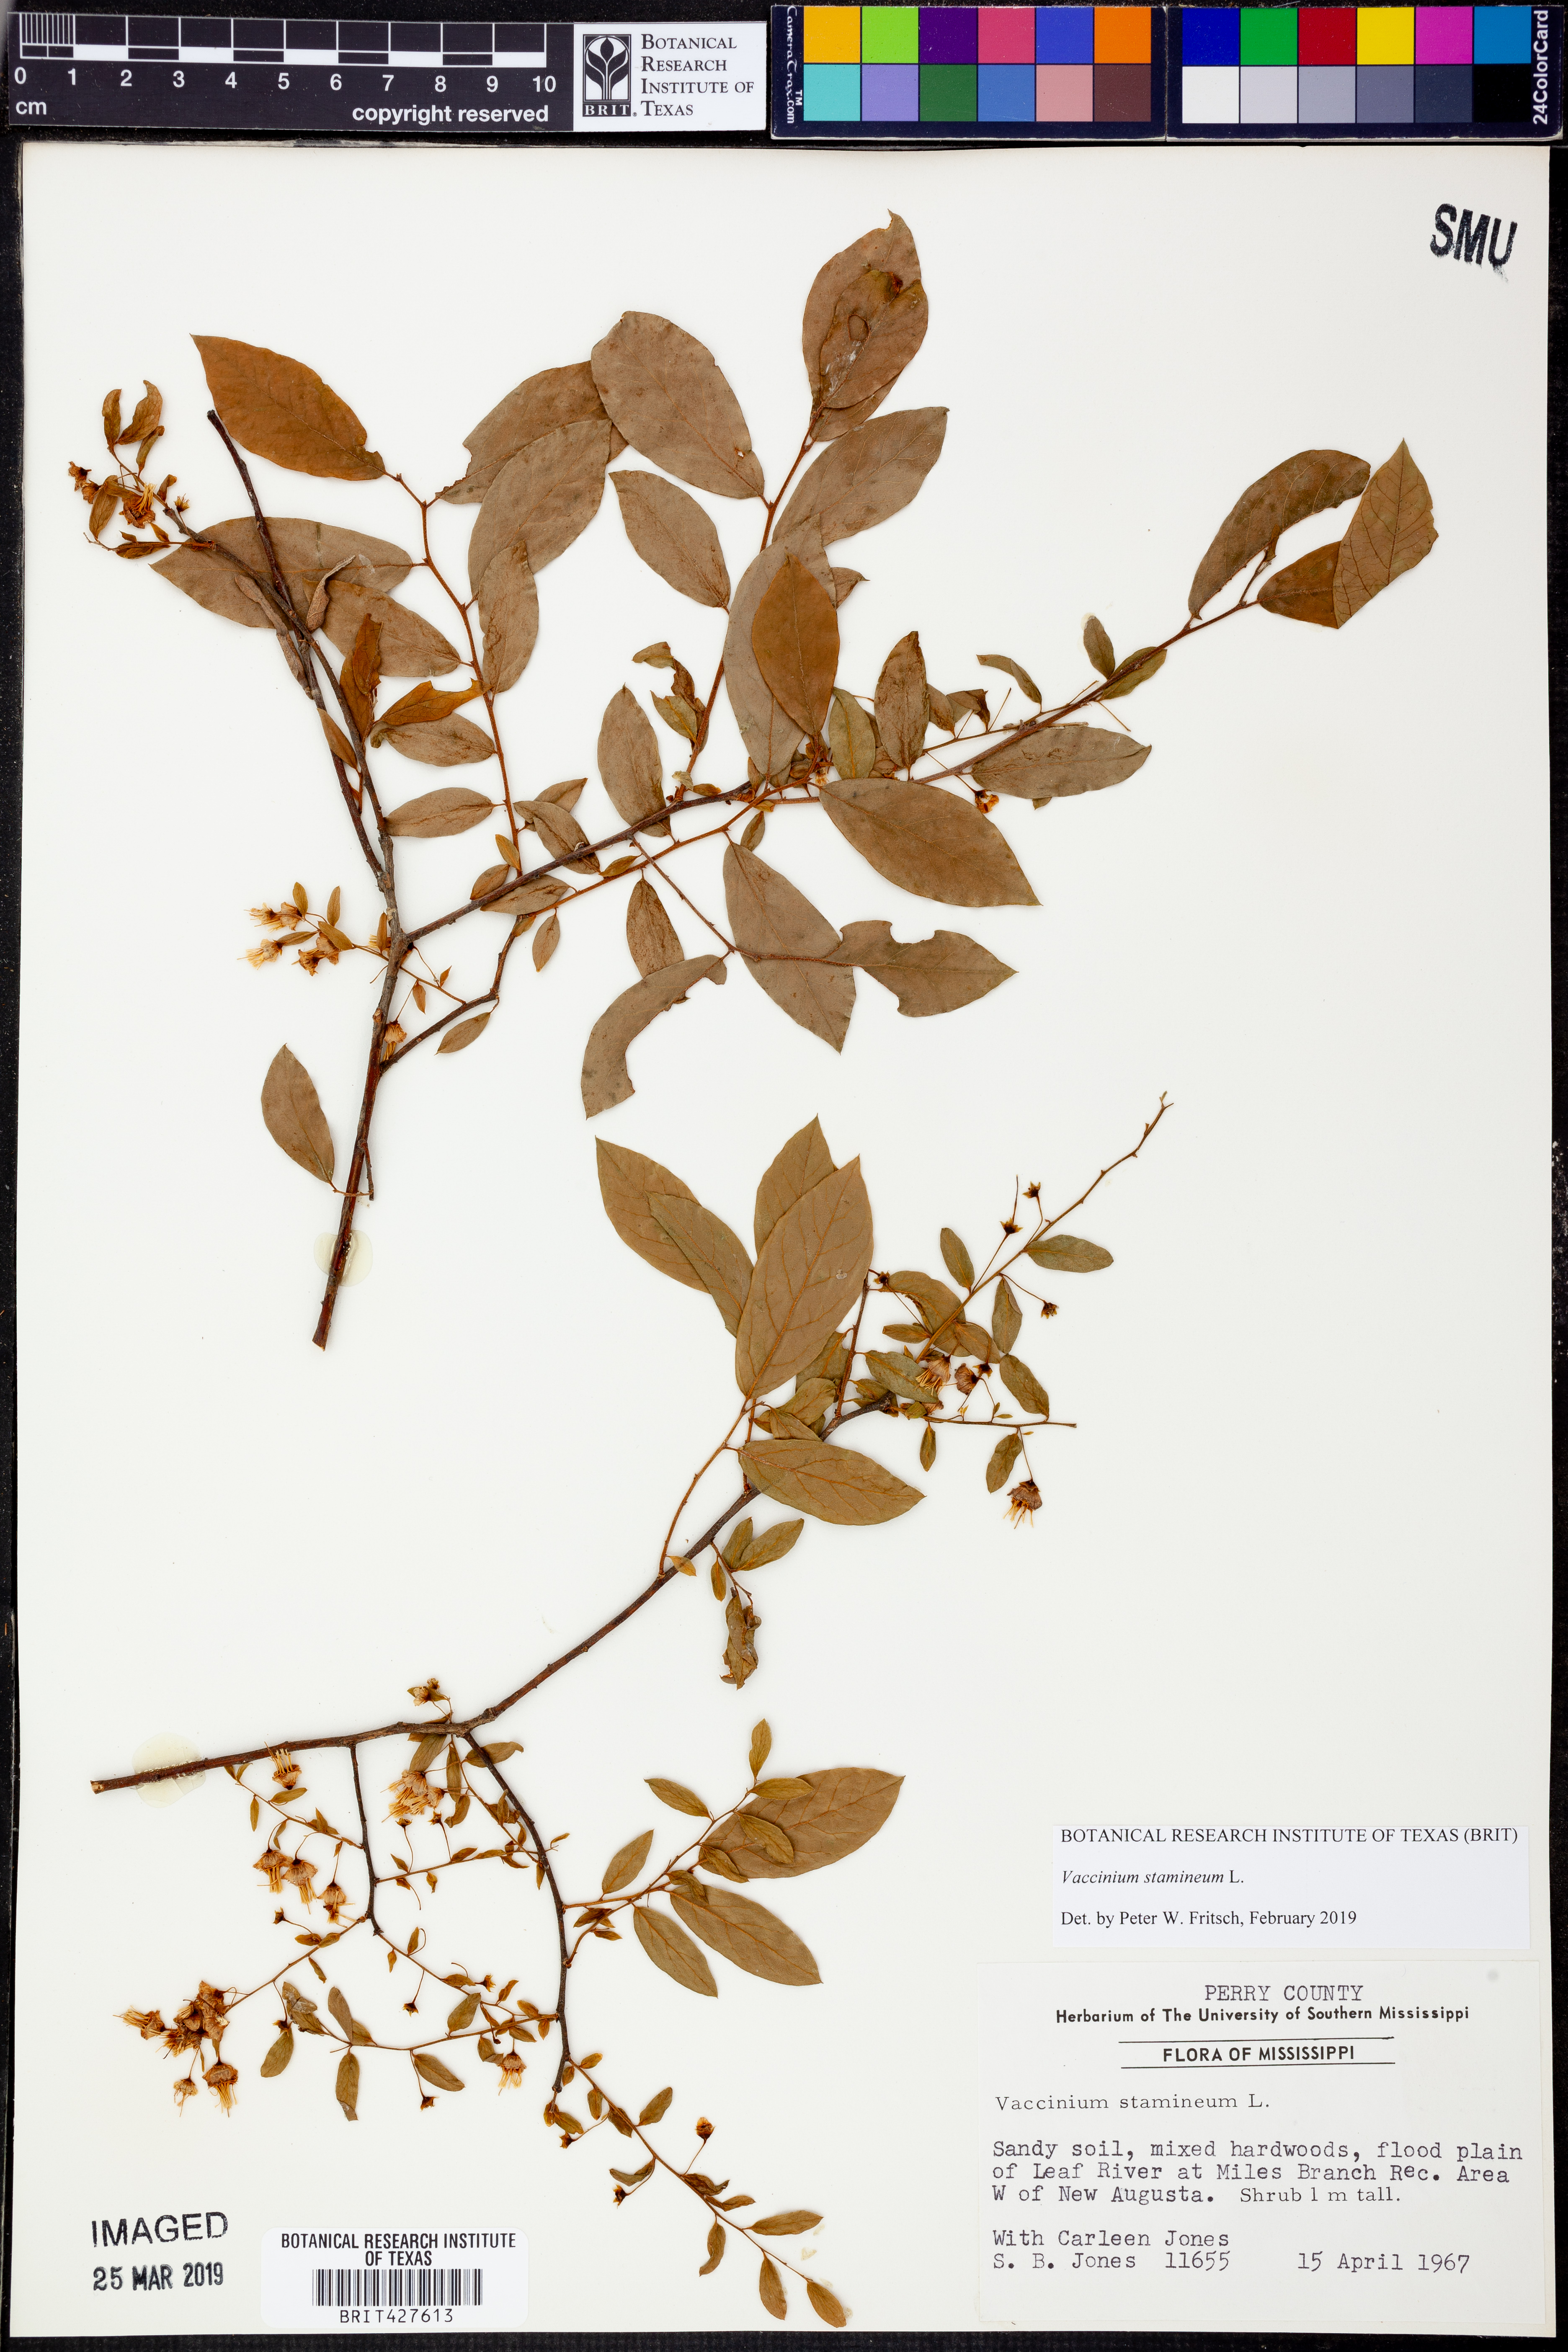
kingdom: Plantae
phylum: Tracheophyta
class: Magnoliopsida
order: Ericales
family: Ericaceae
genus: Vaccinium
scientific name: Vaccinium stamineum
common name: Deerberry
